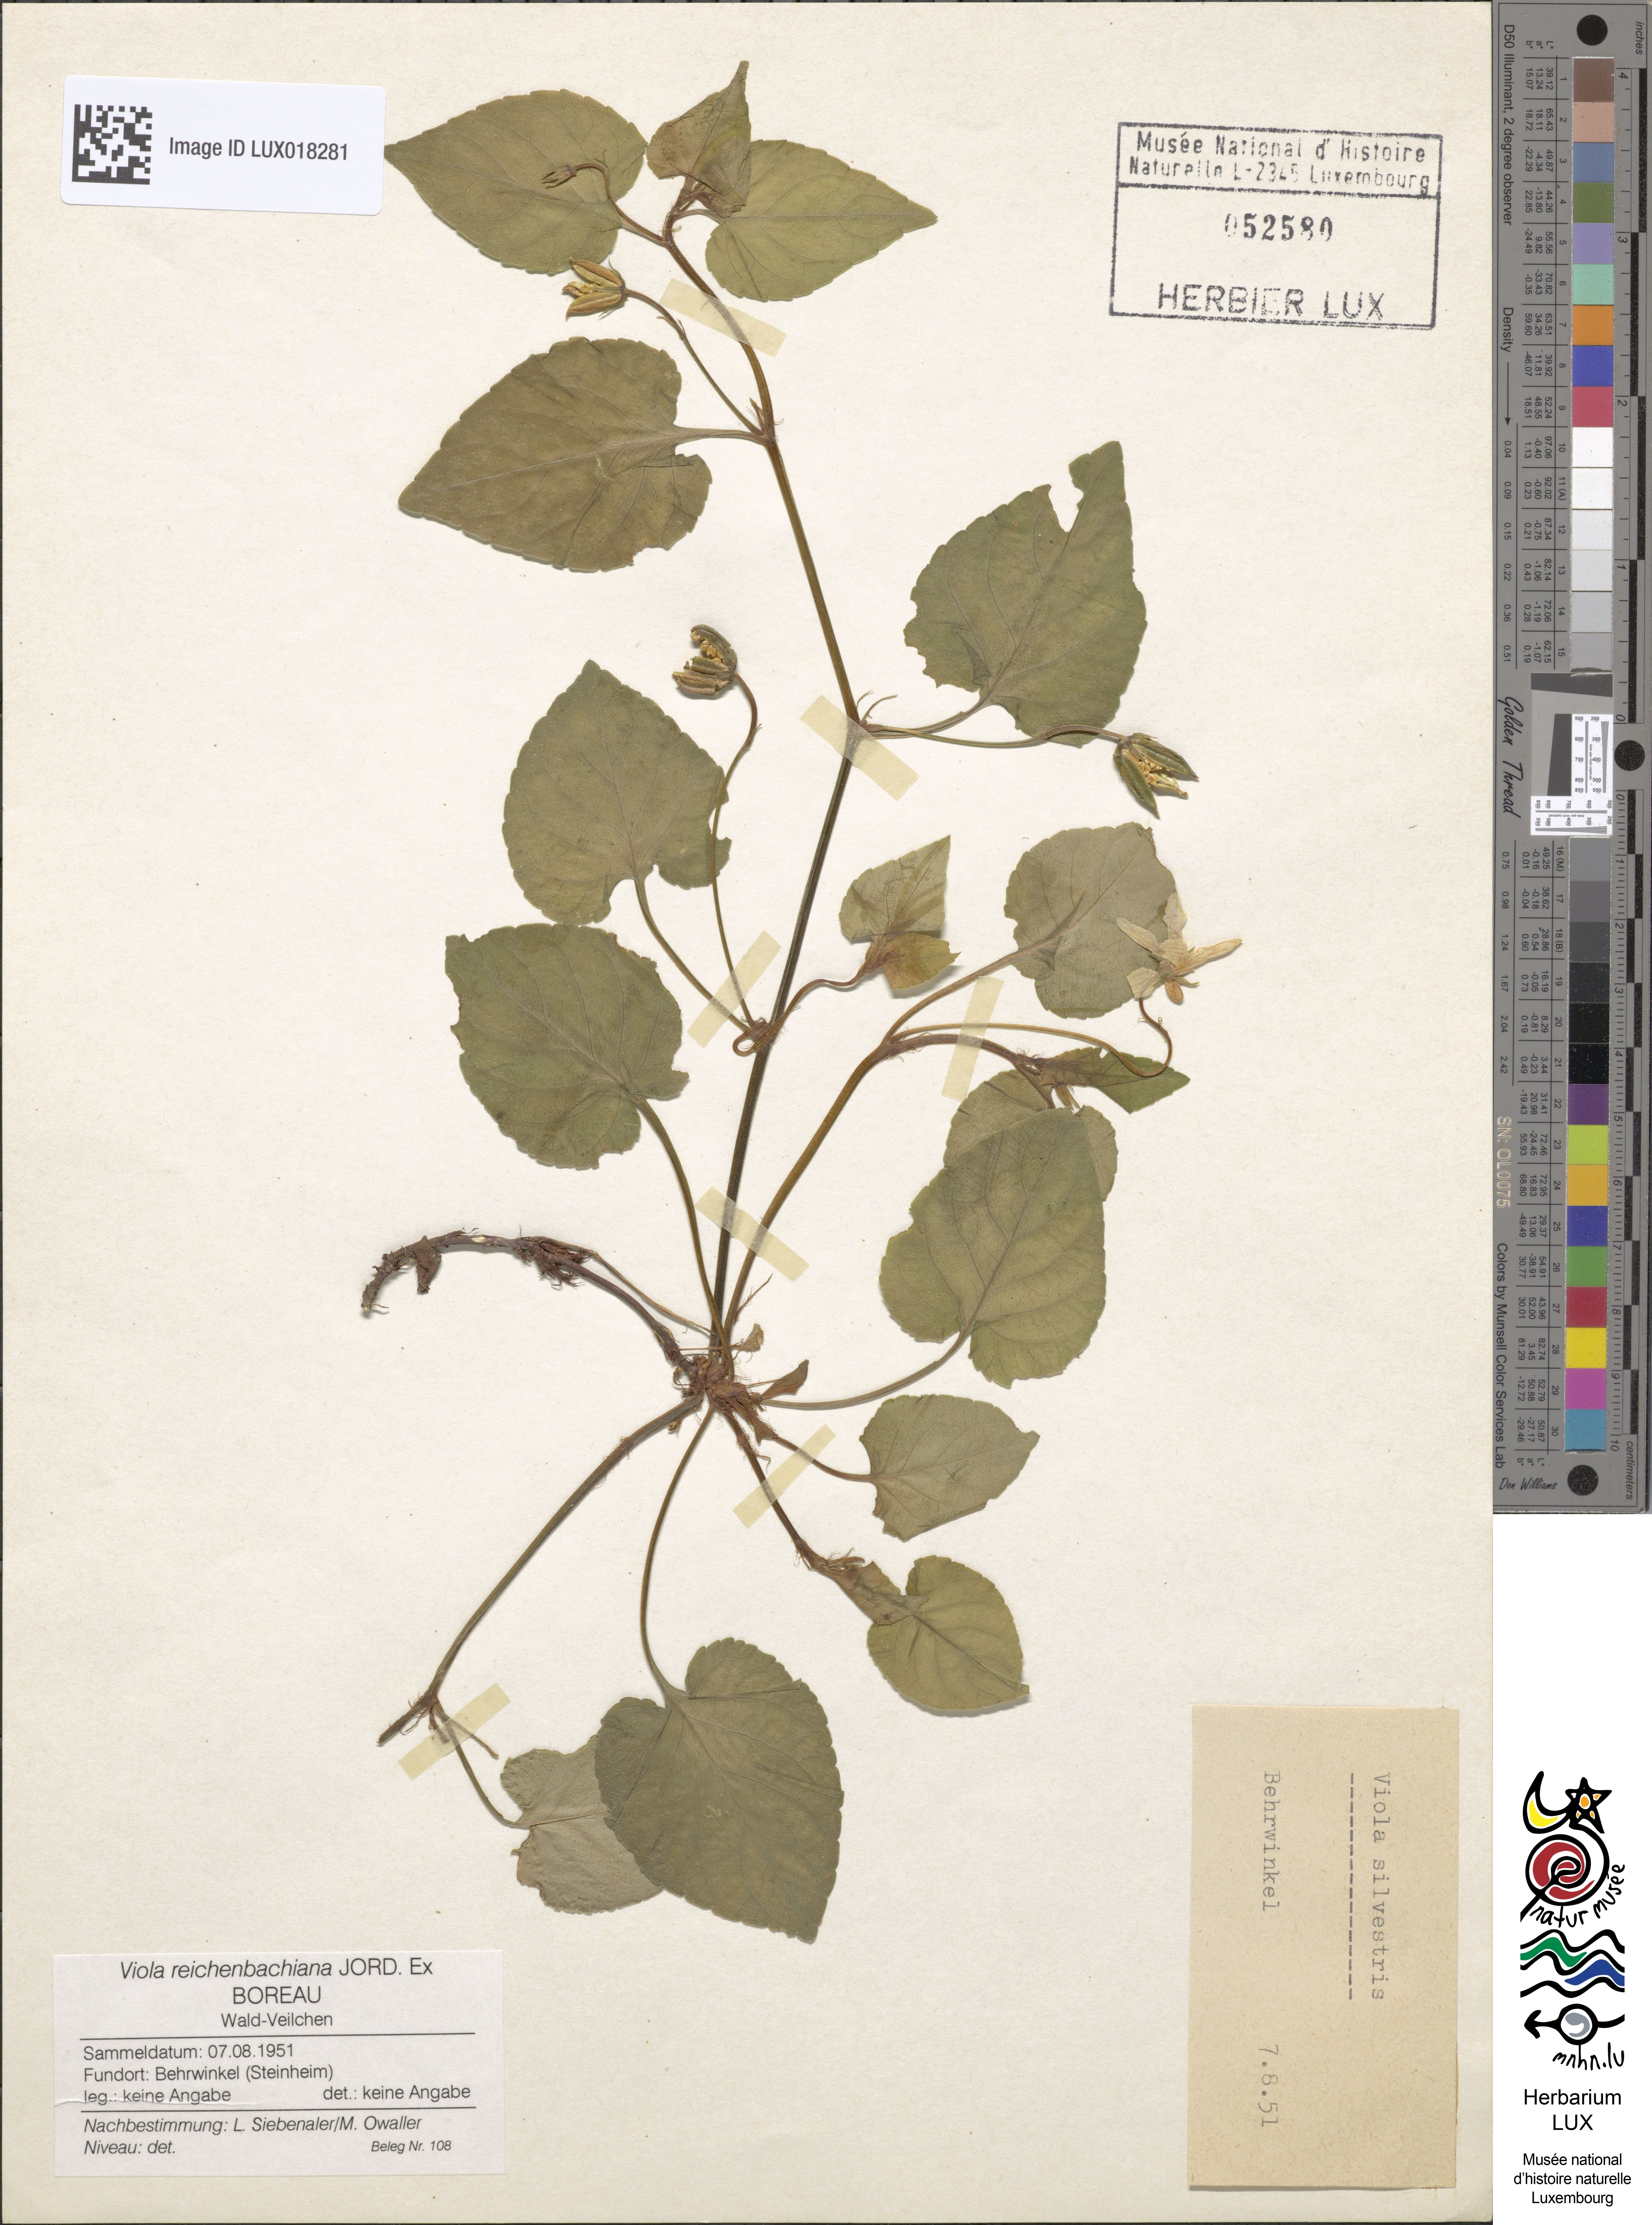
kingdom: Plantae
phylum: Tracheophyta
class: Magnoliopsida
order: Malpighiales
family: Violaceae
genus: Viola
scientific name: Viola reichenbachiana
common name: Early dog-violet
